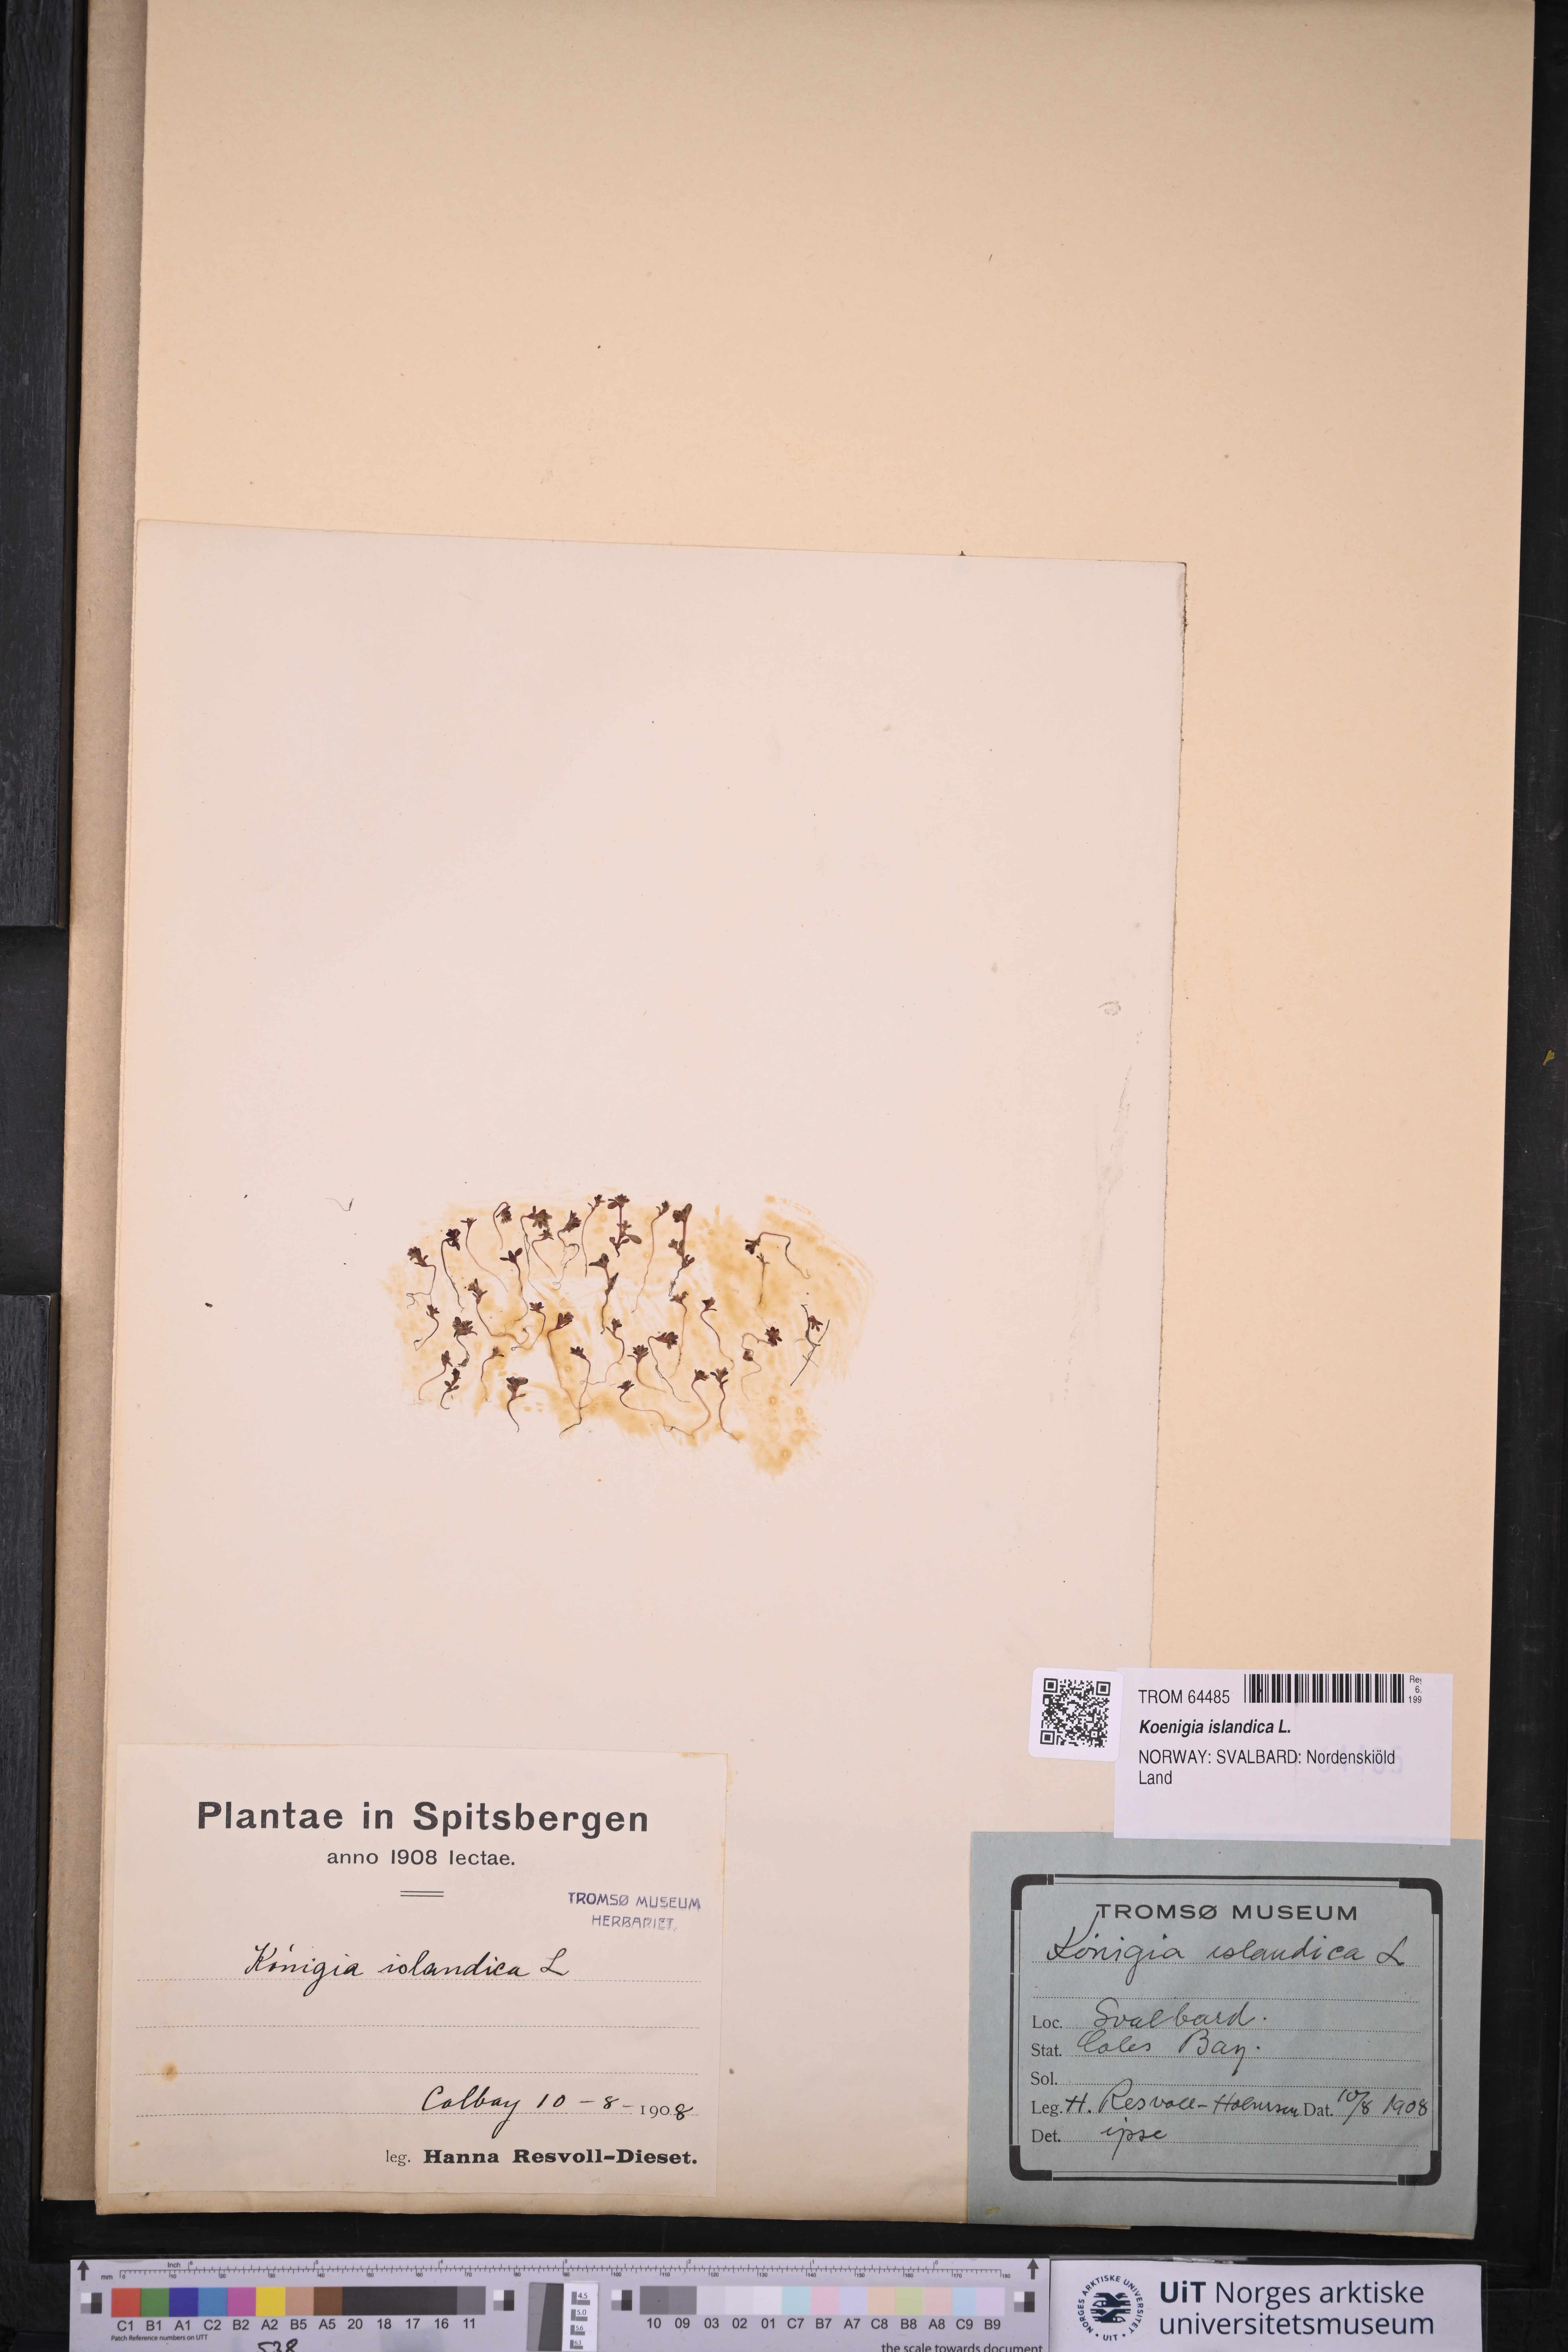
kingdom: Plantae
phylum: Tracheophyta
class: Magnoliopsida
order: Caryophyllales
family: Polygonaceae
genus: Koenigia
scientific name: Koenigia islandica
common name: Iceland-purslane
